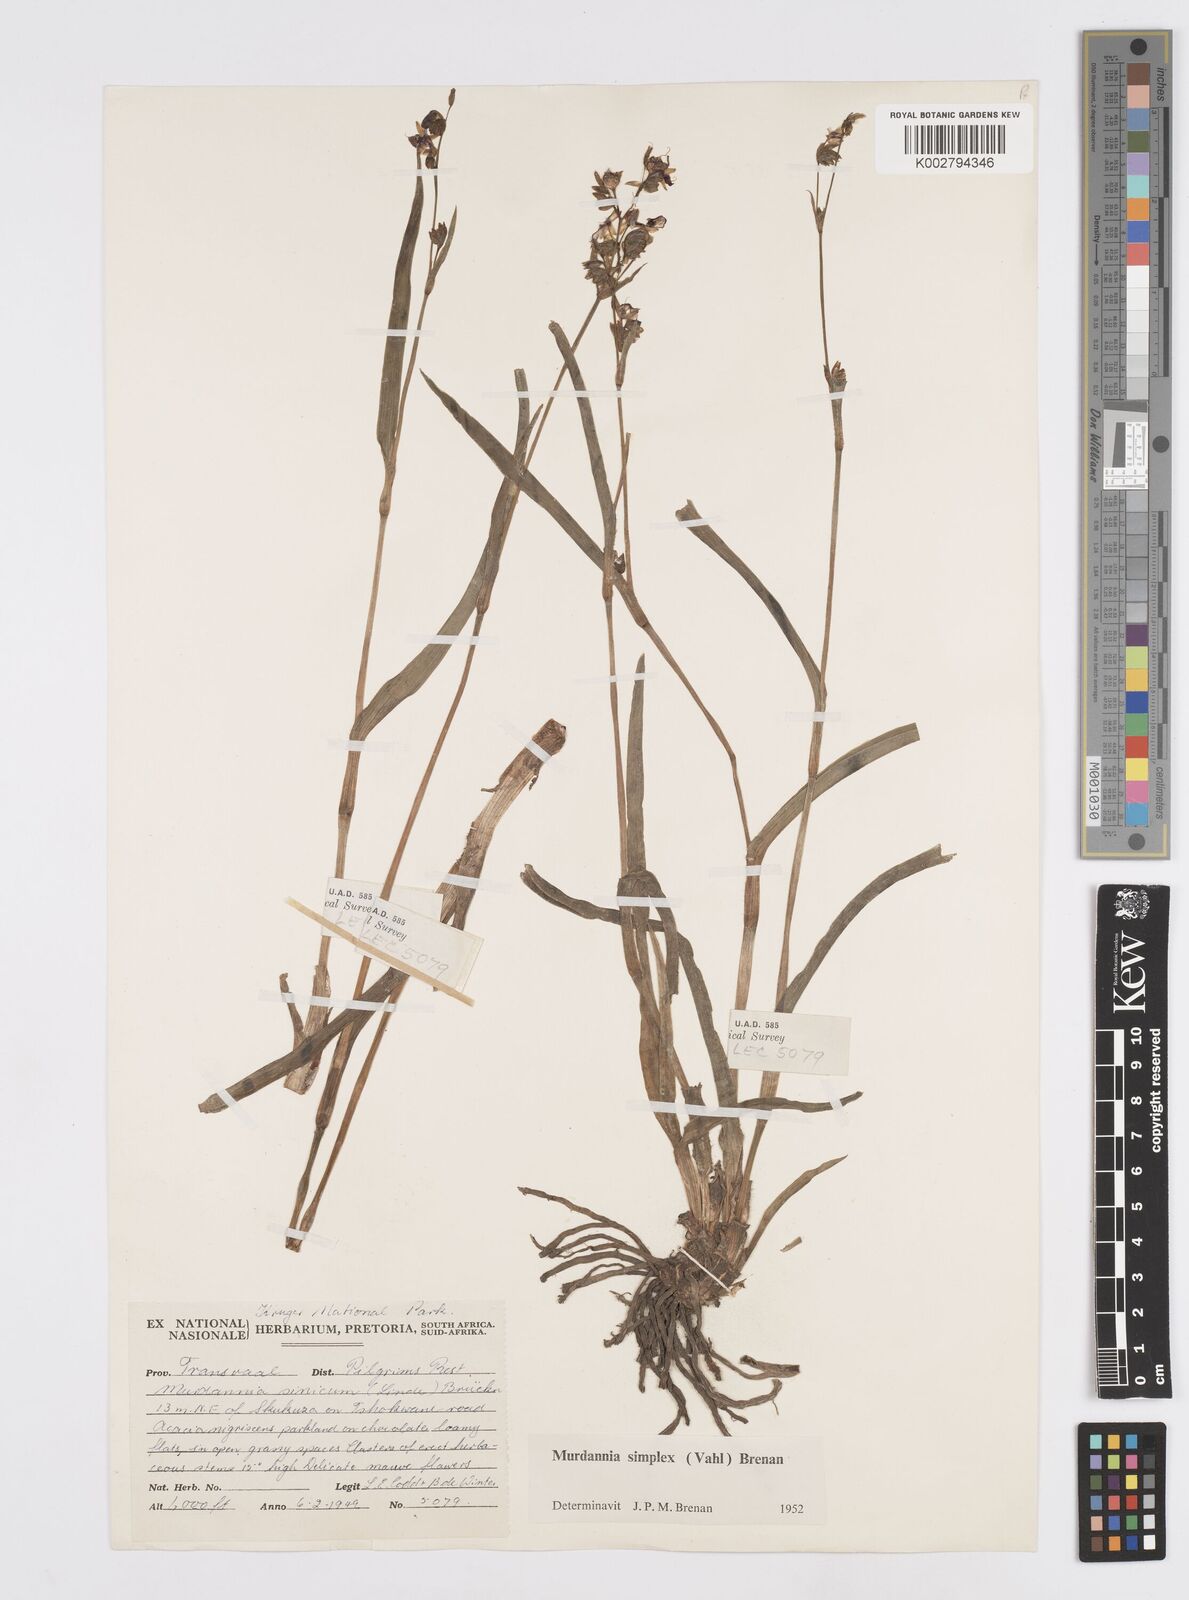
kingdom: Plantae
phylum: Tracheophyta
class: Liliopsida
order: Commelinales
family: Commelinaceae
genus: Murdannia
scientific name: Murdannia simplex
